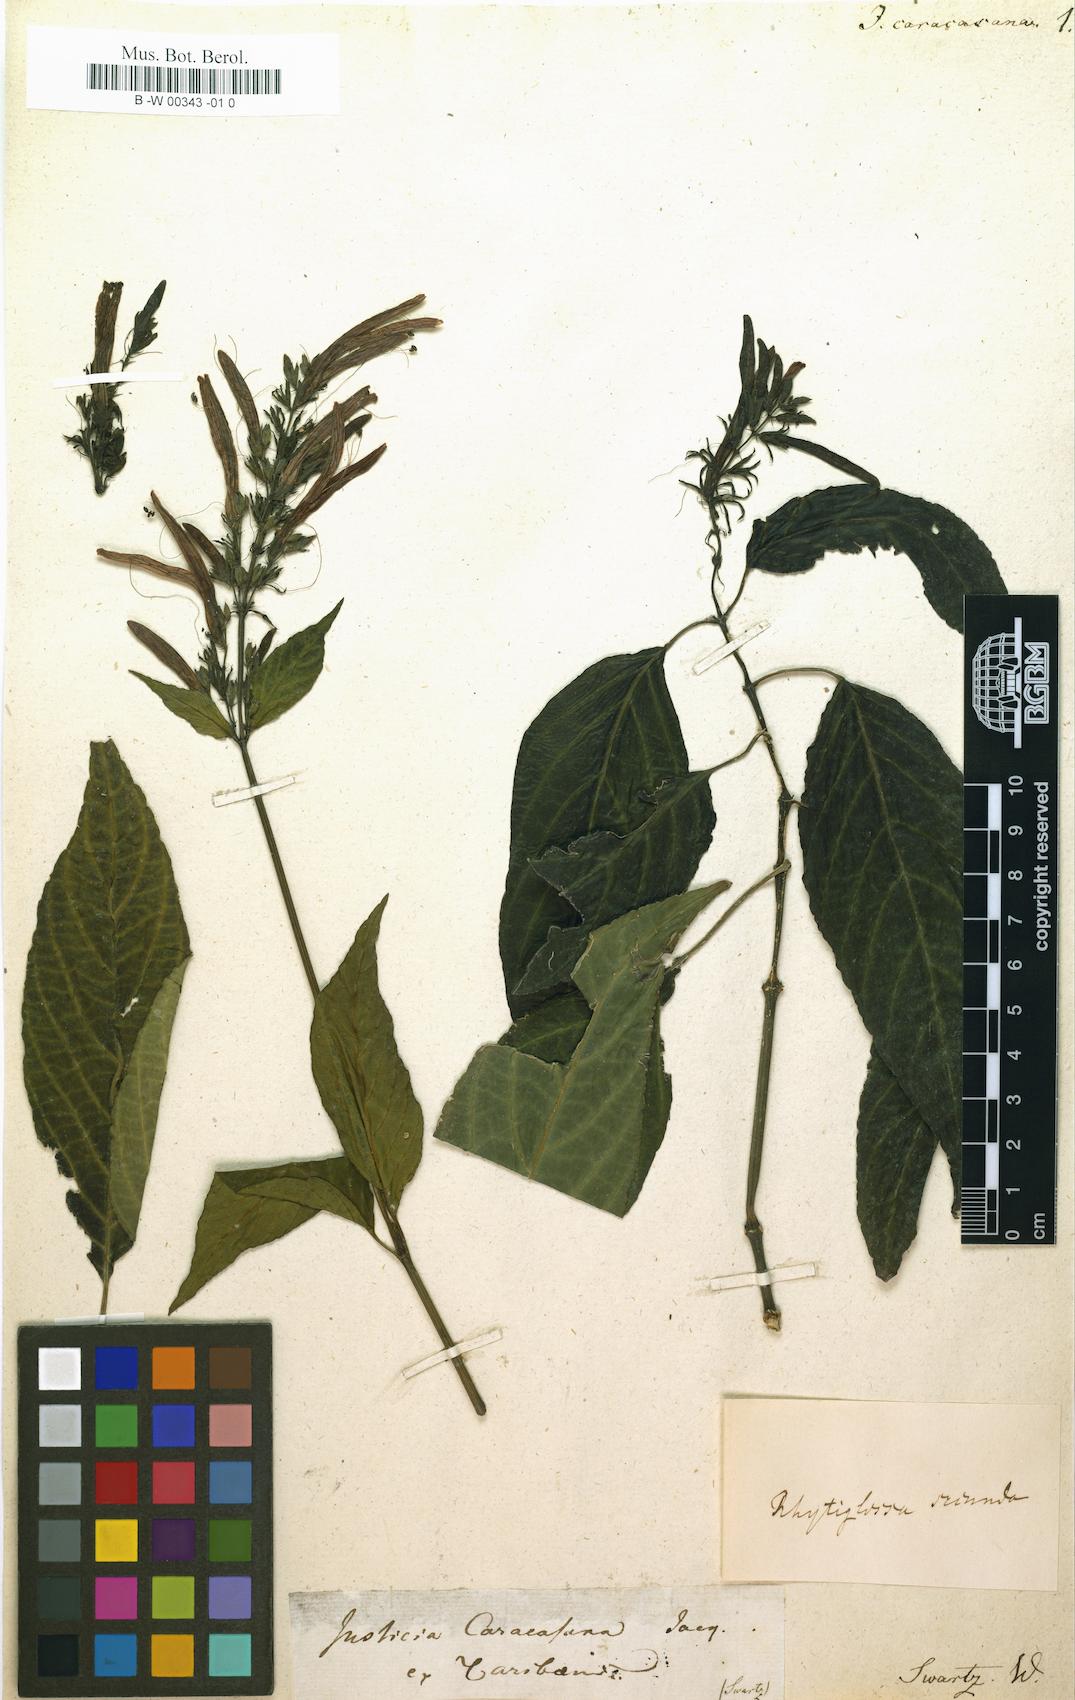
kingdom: Plantae
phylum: Tracheophyta
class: Magnoliopsida
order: Lamiales
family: Acanthaceae
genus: Justicia
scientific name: Justicia caracasana
